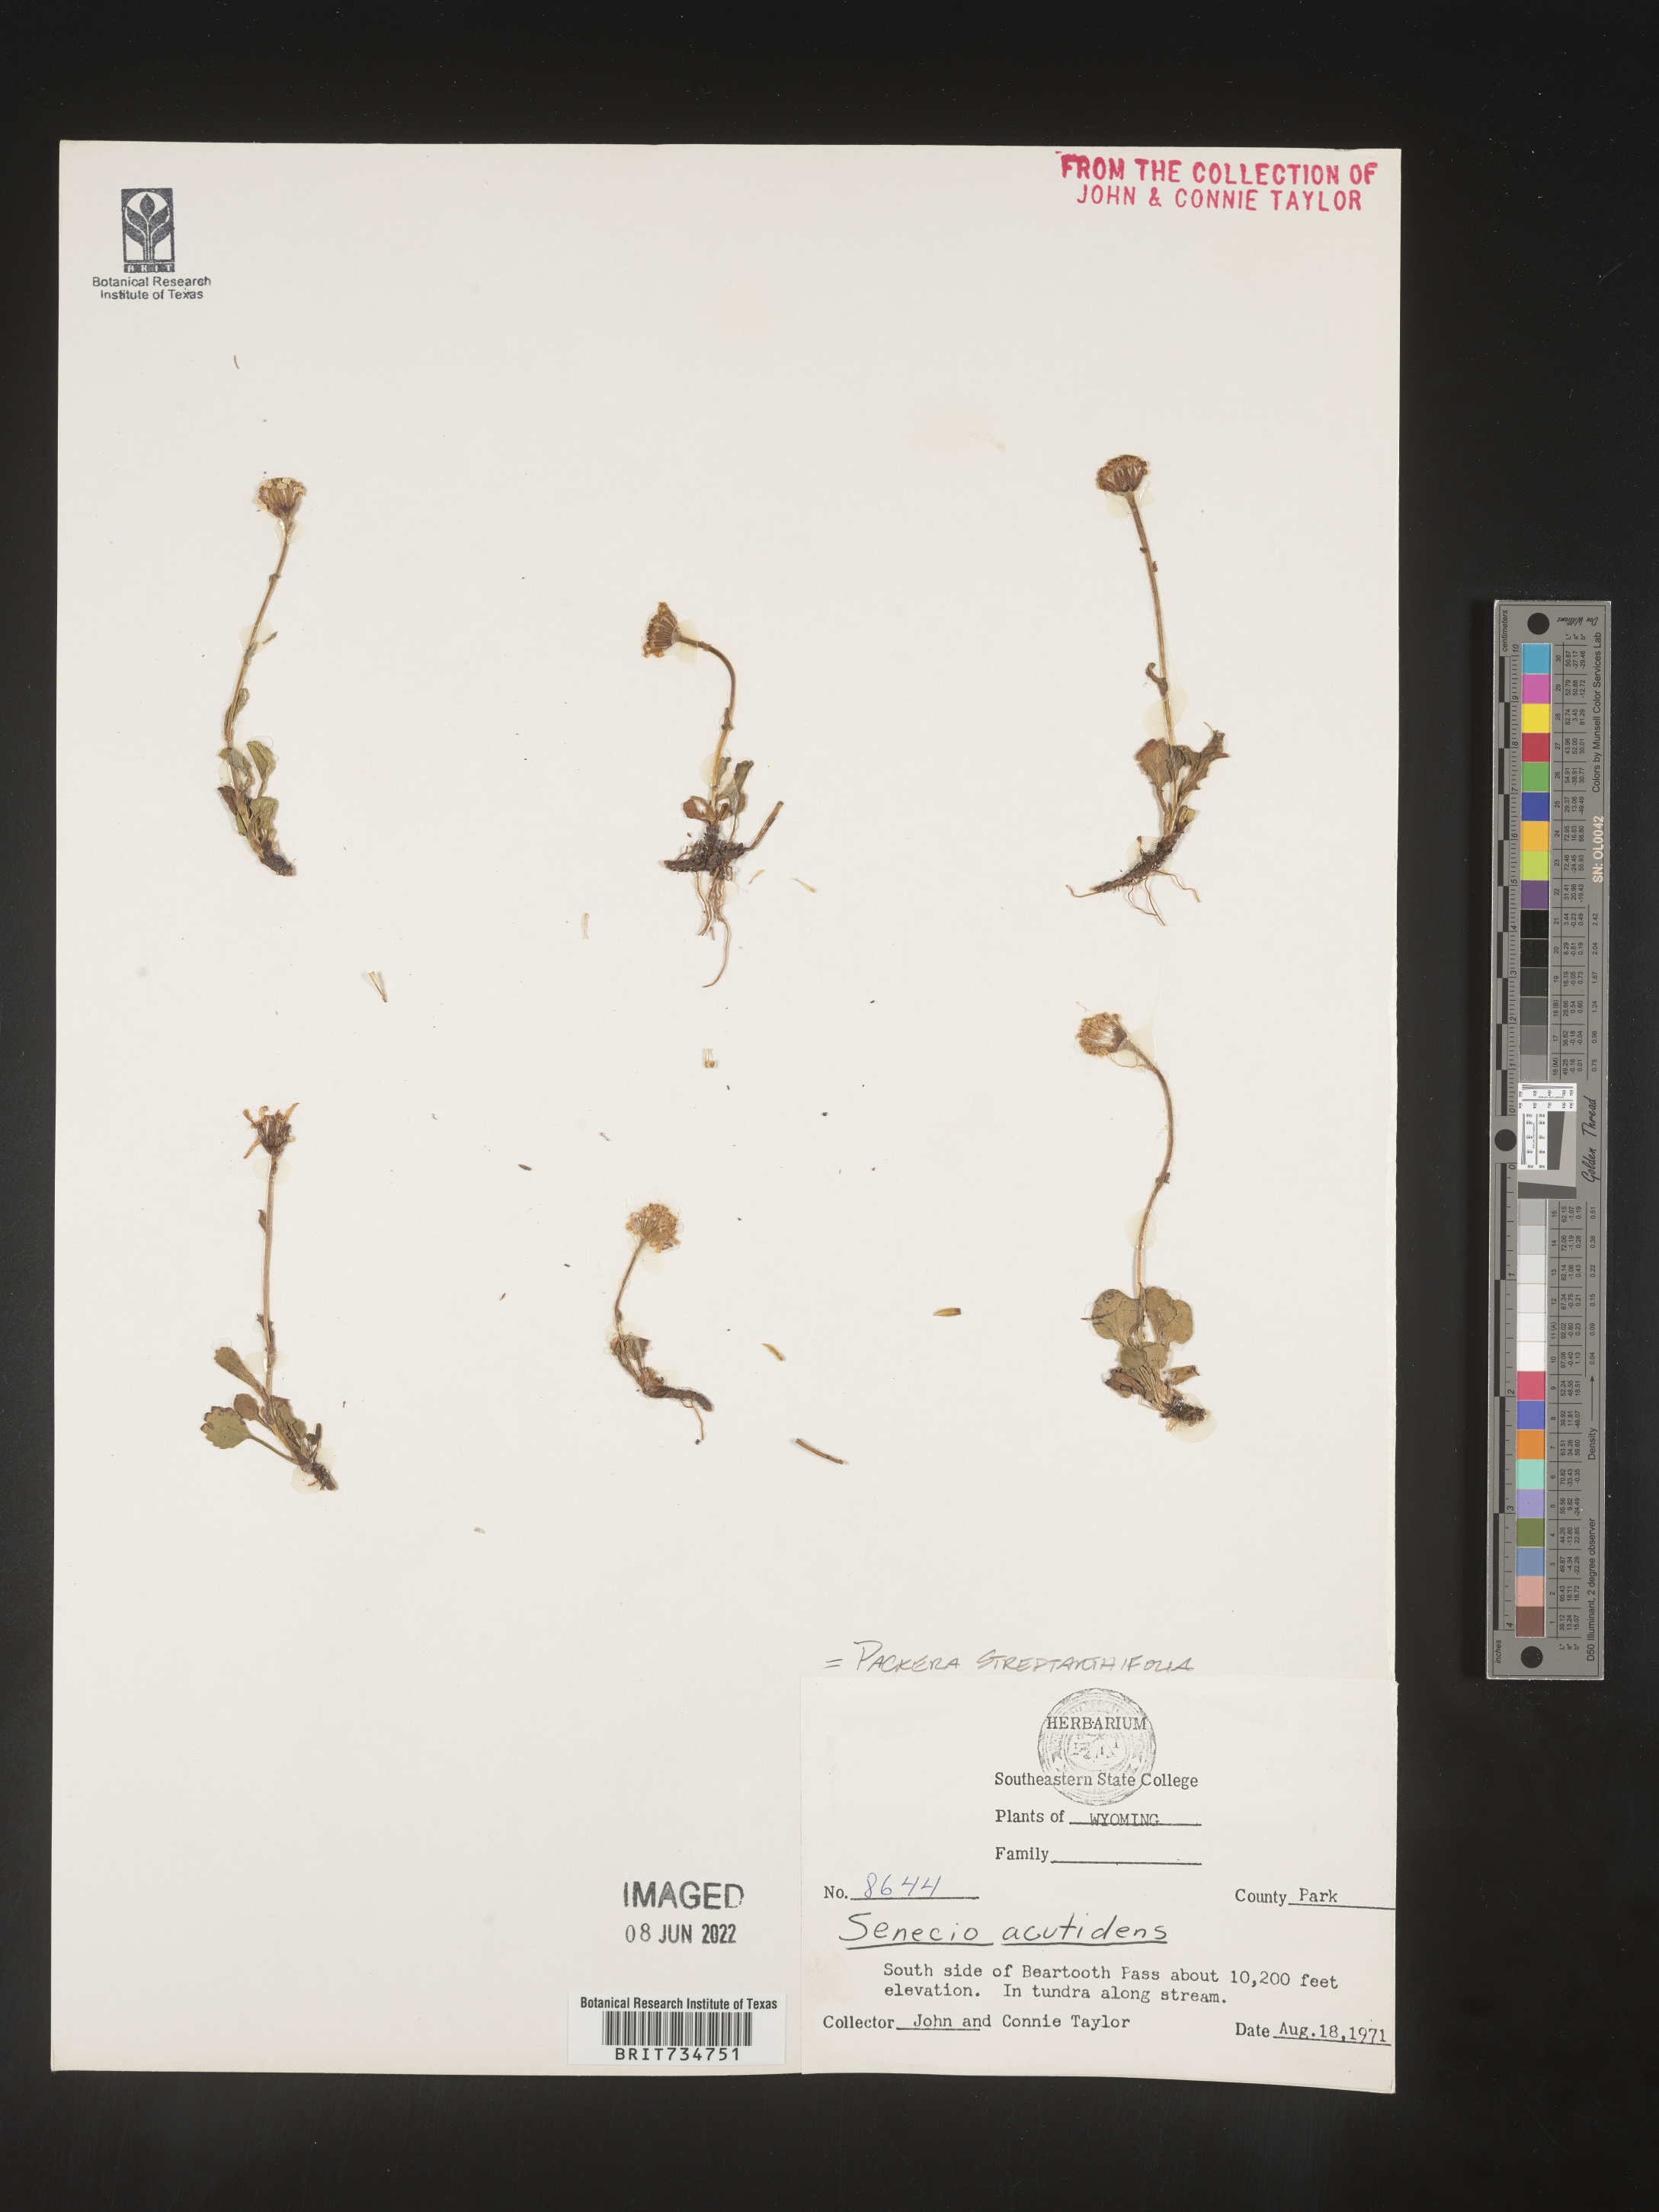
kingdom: Plantae
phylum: Tracheophyta
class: Magnoliopsida
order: Asterales
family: Asteraceae
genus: Packera
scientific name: Packera streptanthifolia
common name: Rocky mountain butterweed
